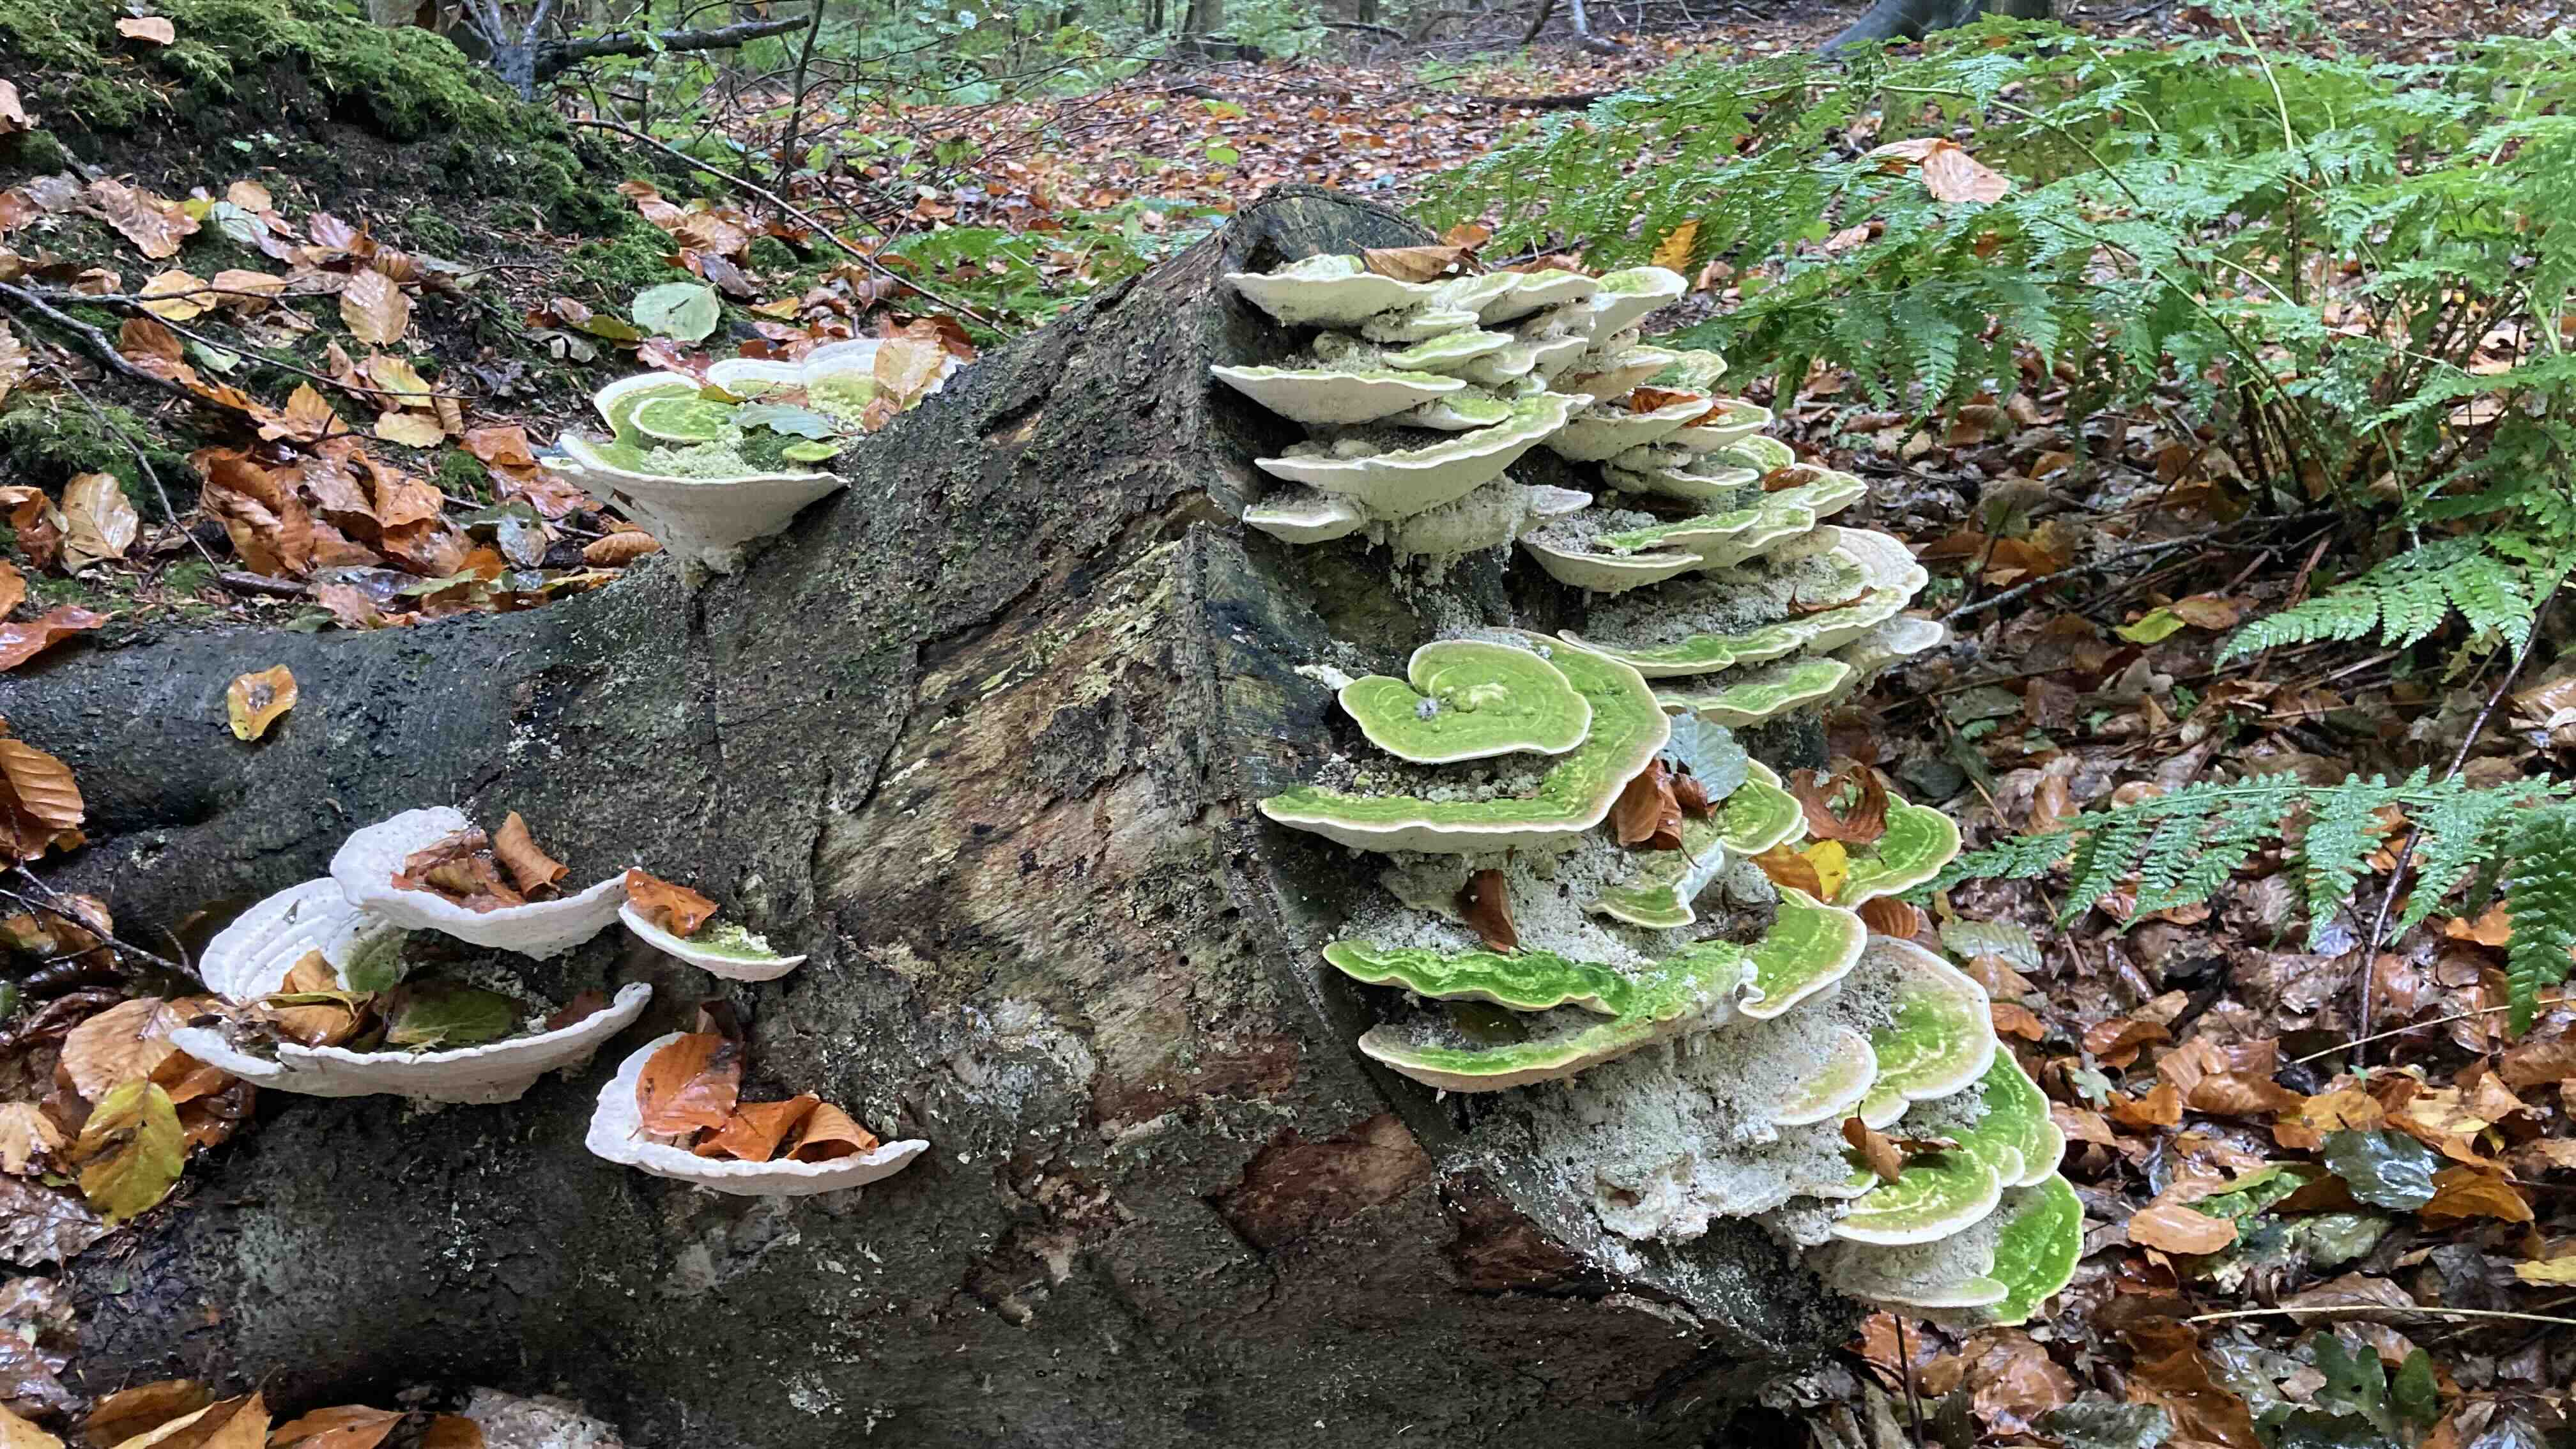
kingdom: Fungi
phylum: Basidiomycota
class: Agaricomycetes
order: Polyporales
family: Polyporaceae
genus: Trametes
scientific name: Trametes gibbosa
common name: puklet læderporesvamp
